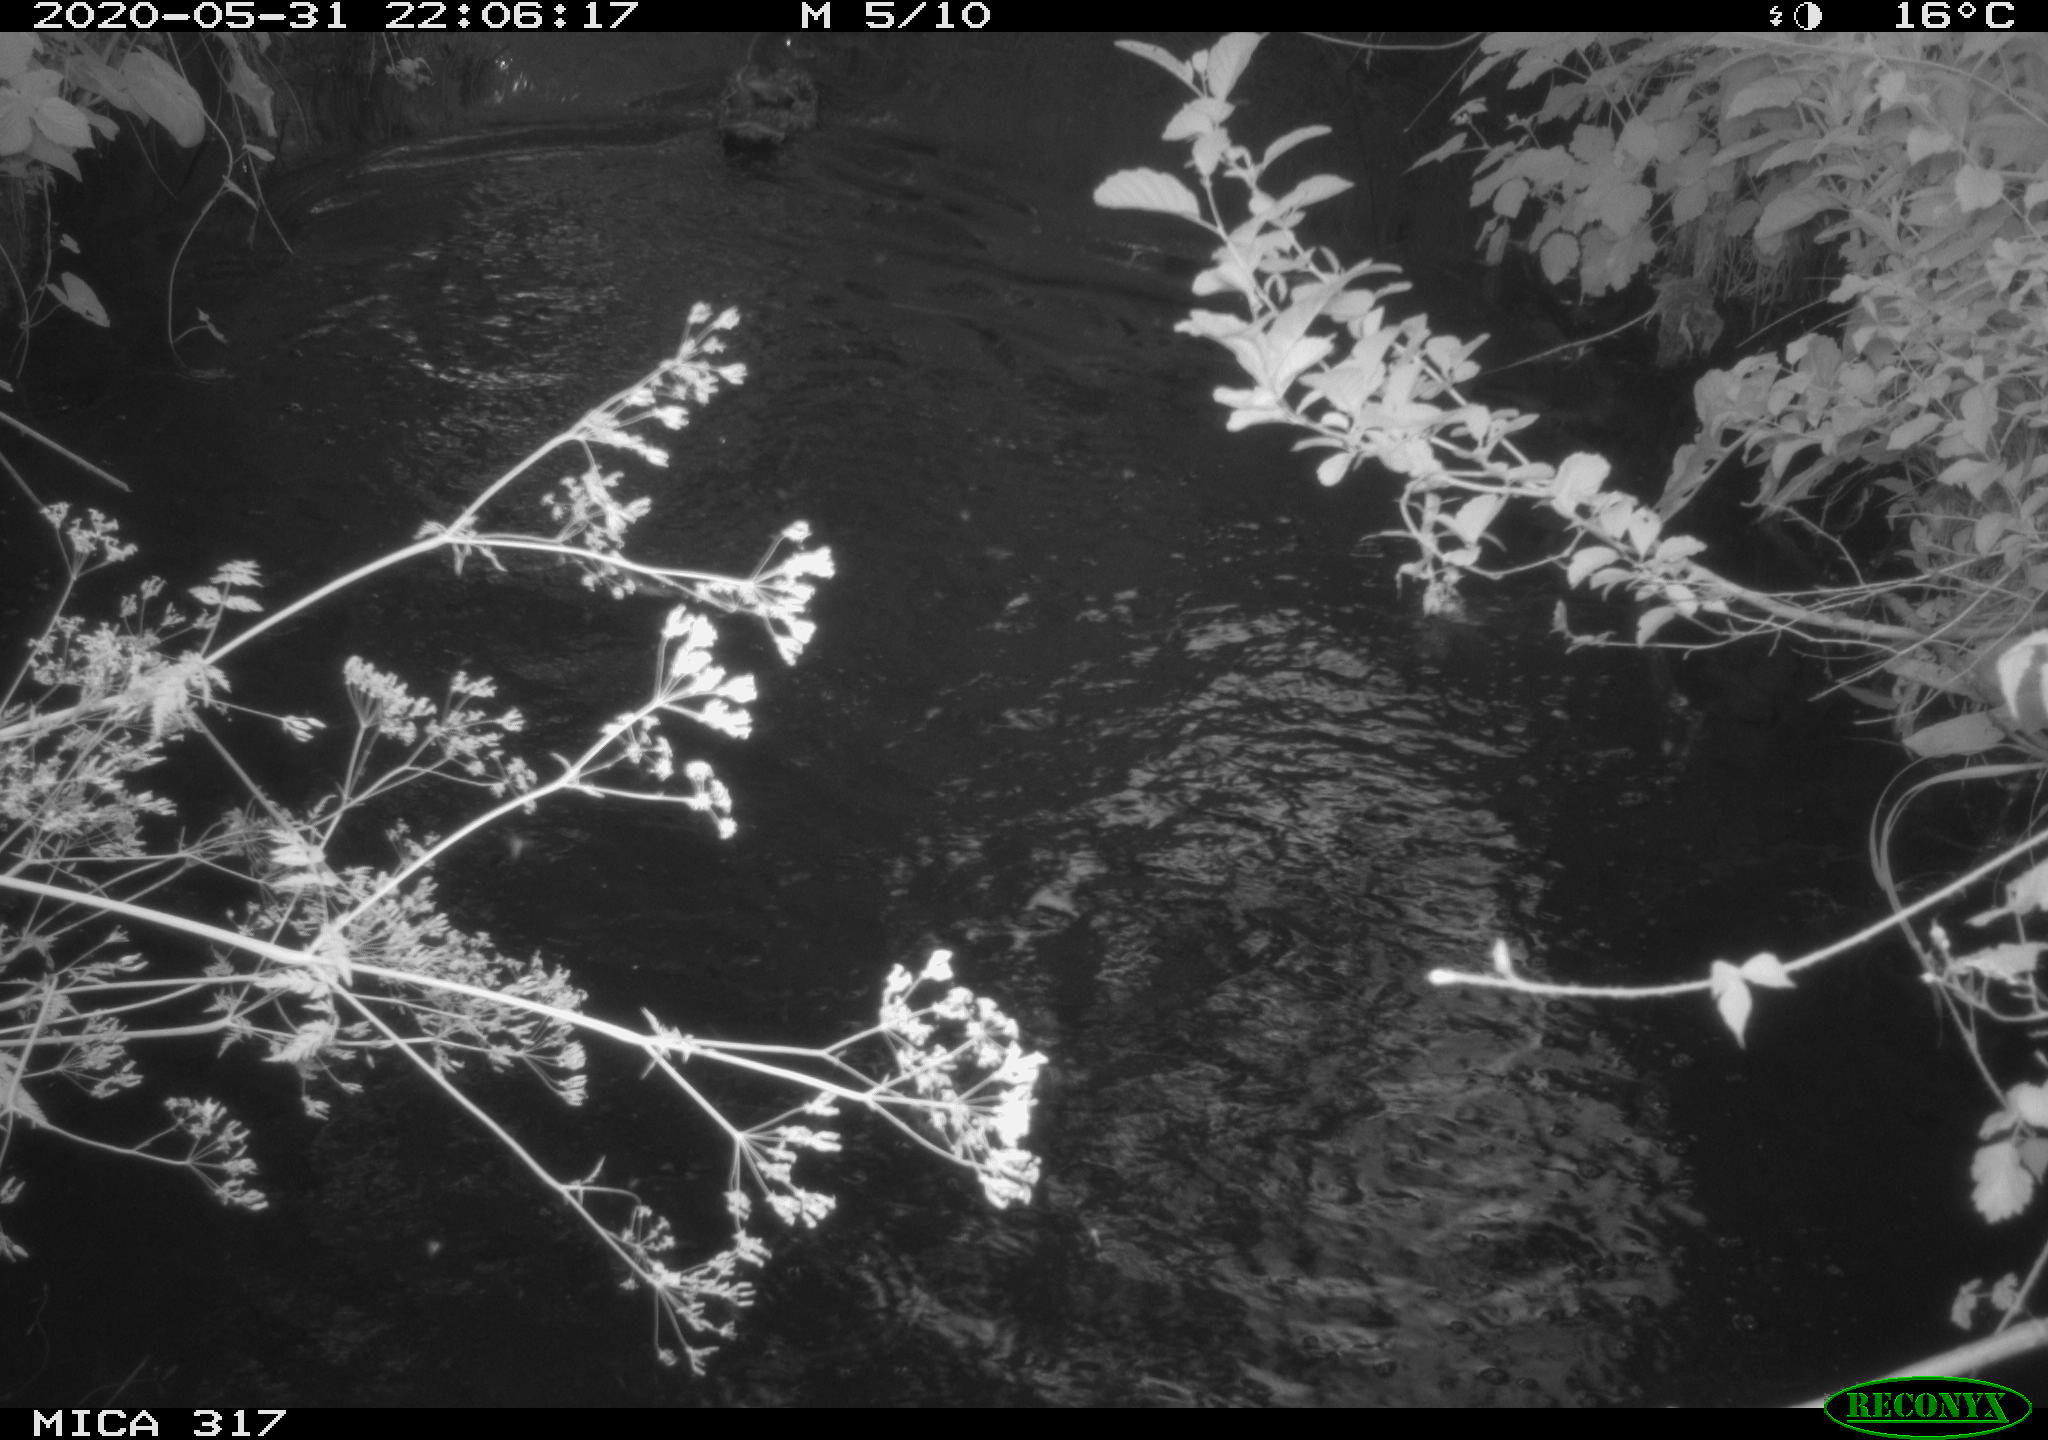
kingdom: Animalia
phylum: Chordata
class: Aves
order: Anseriformes
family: Anatidae
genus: Anas
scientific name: Anas platyrhynchos
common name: Mallard
